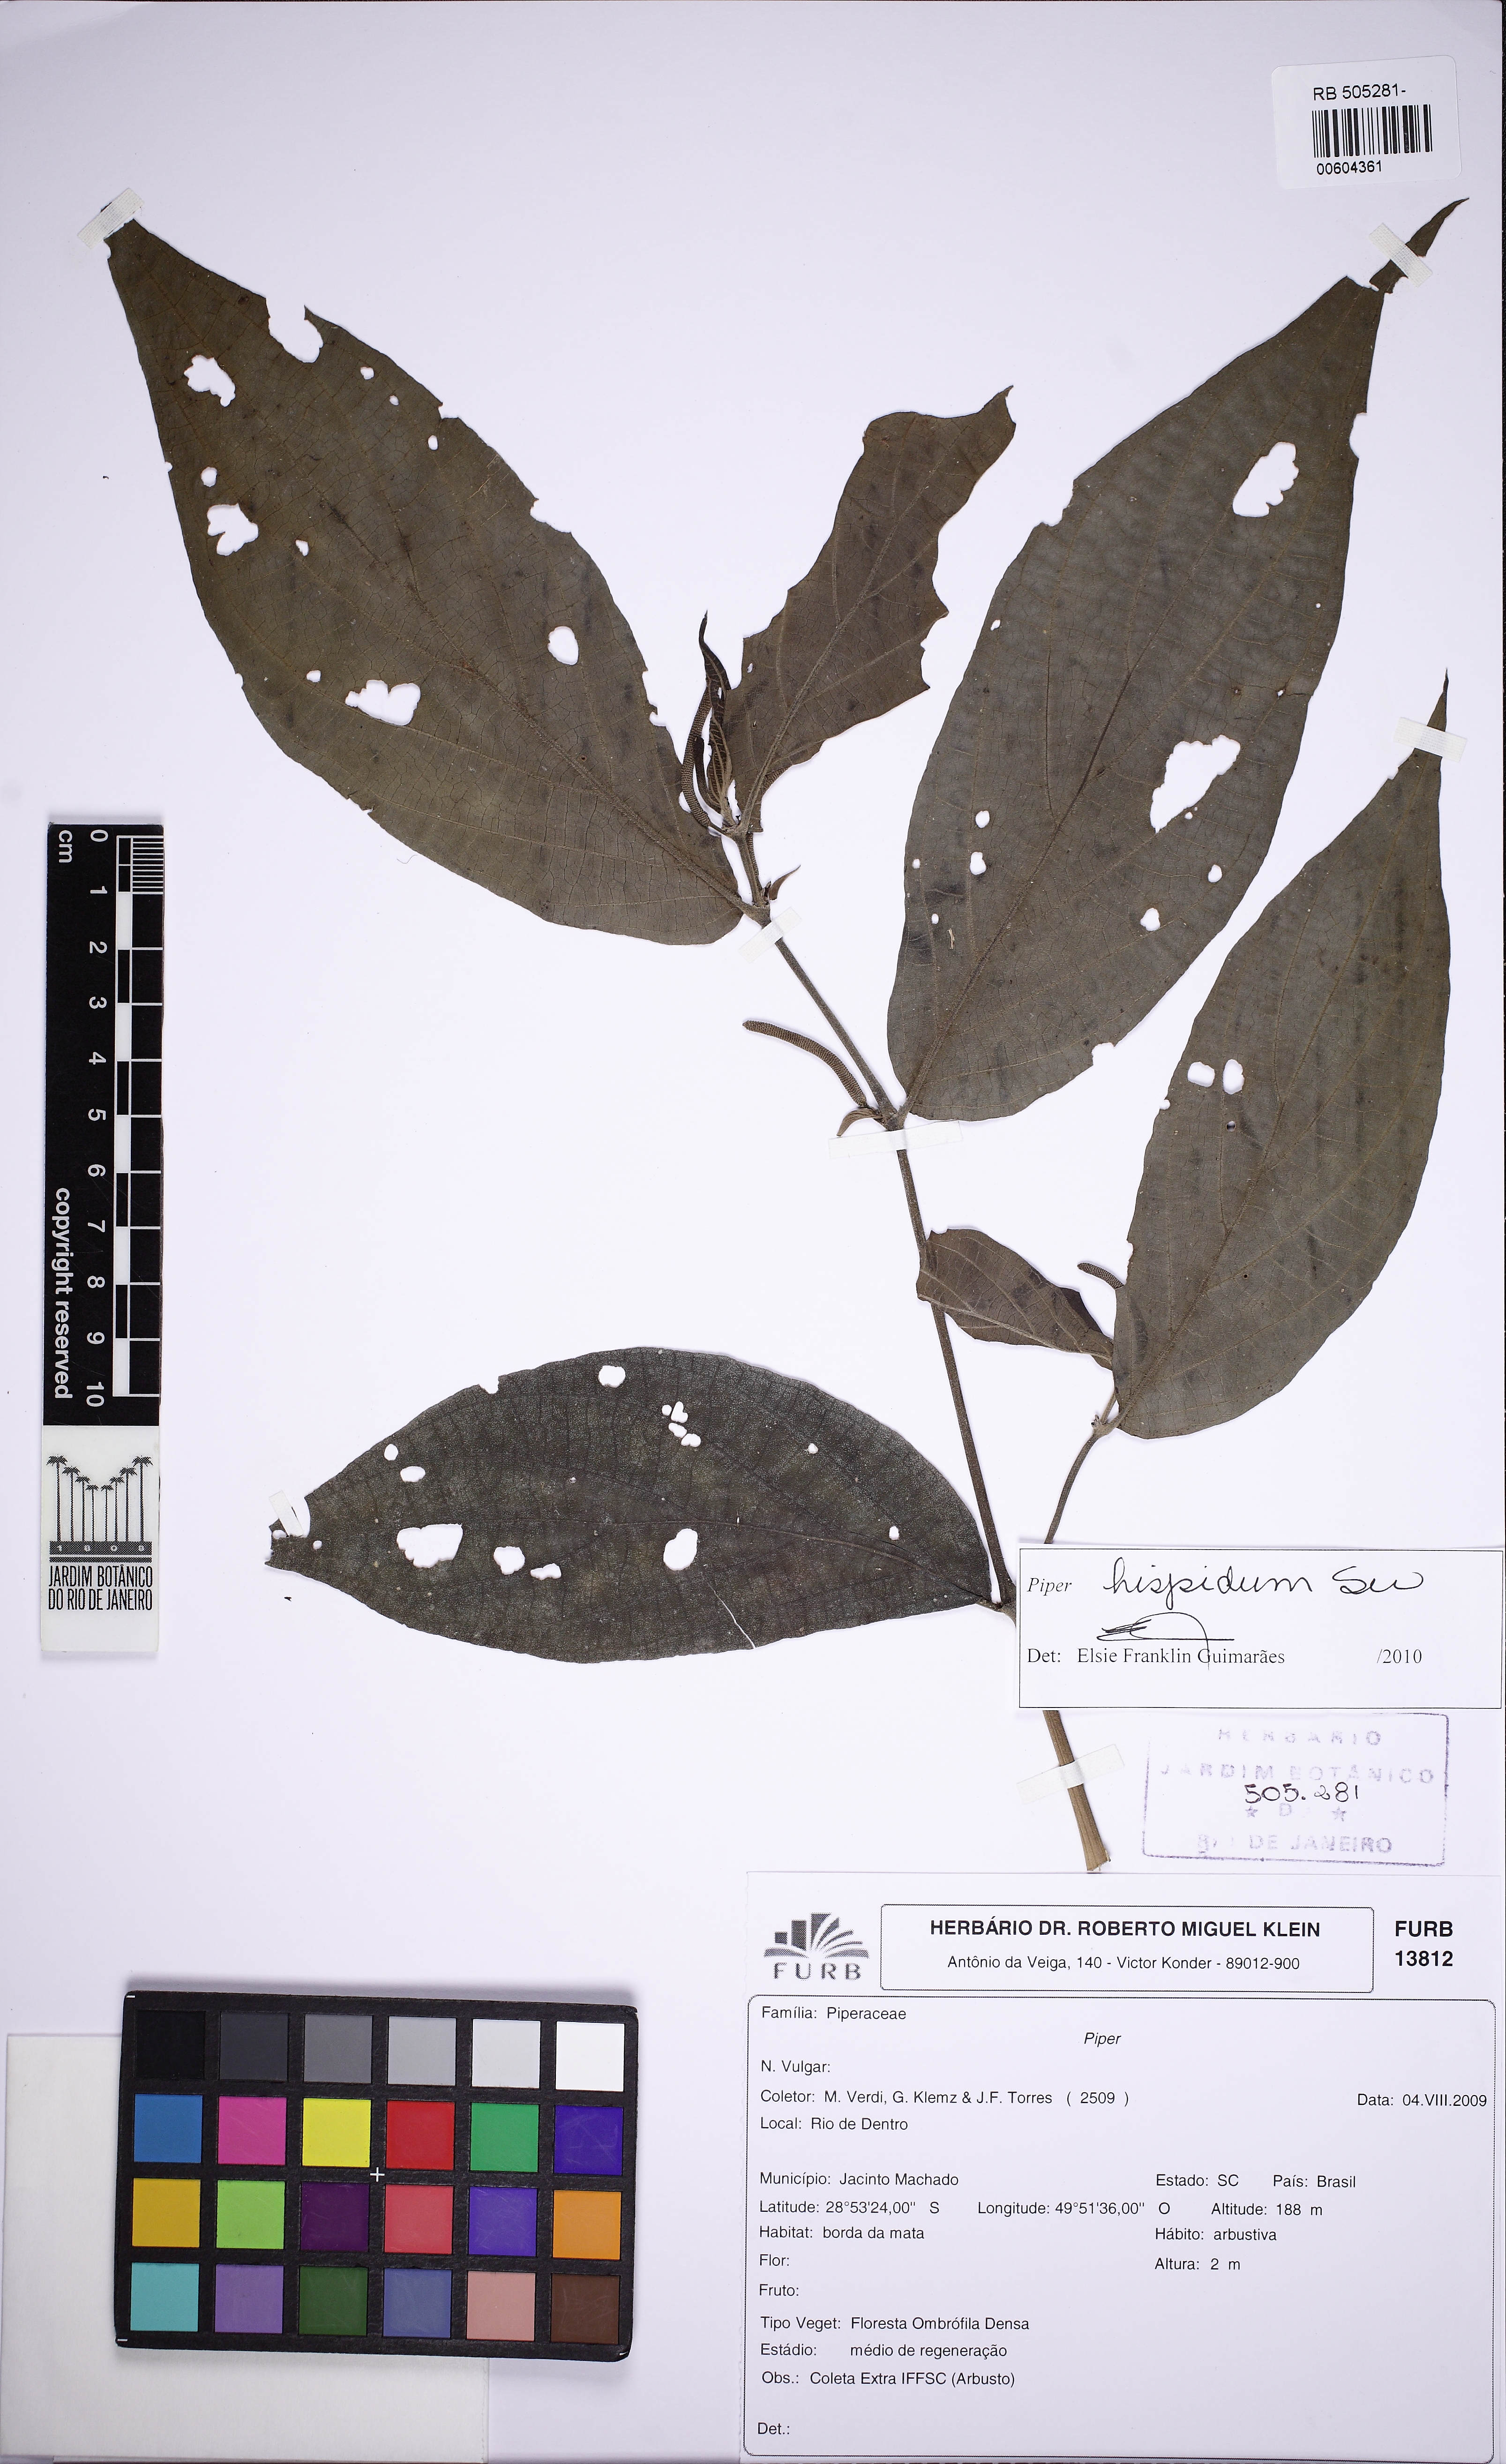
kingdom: Plantae
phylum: Tracheophyta
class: Magnoliopsida
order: Piperales
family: Piperaceae
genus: Piper
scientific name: Piper hispidum
